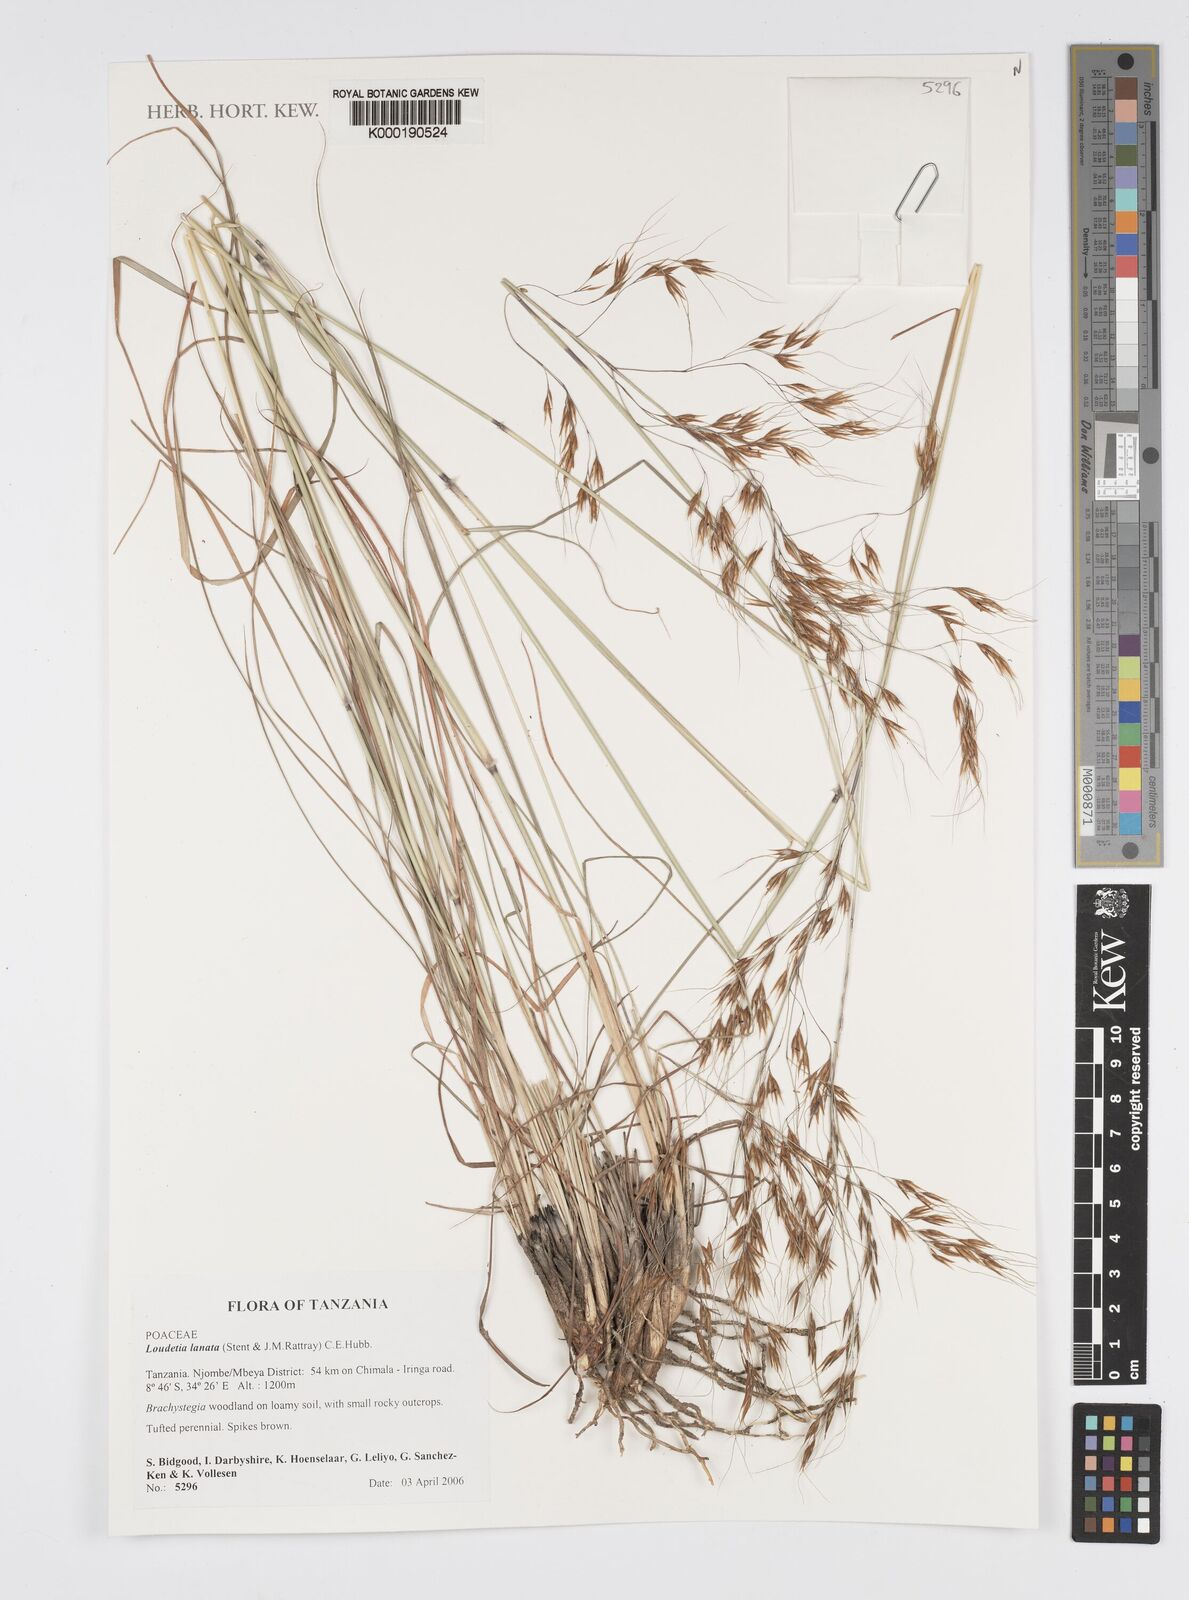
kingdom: Plantae
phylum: Tracheophyta
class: Liliopsida
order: Poales
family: Poaceae
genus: Loudetia
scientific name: Loudetia lanata
